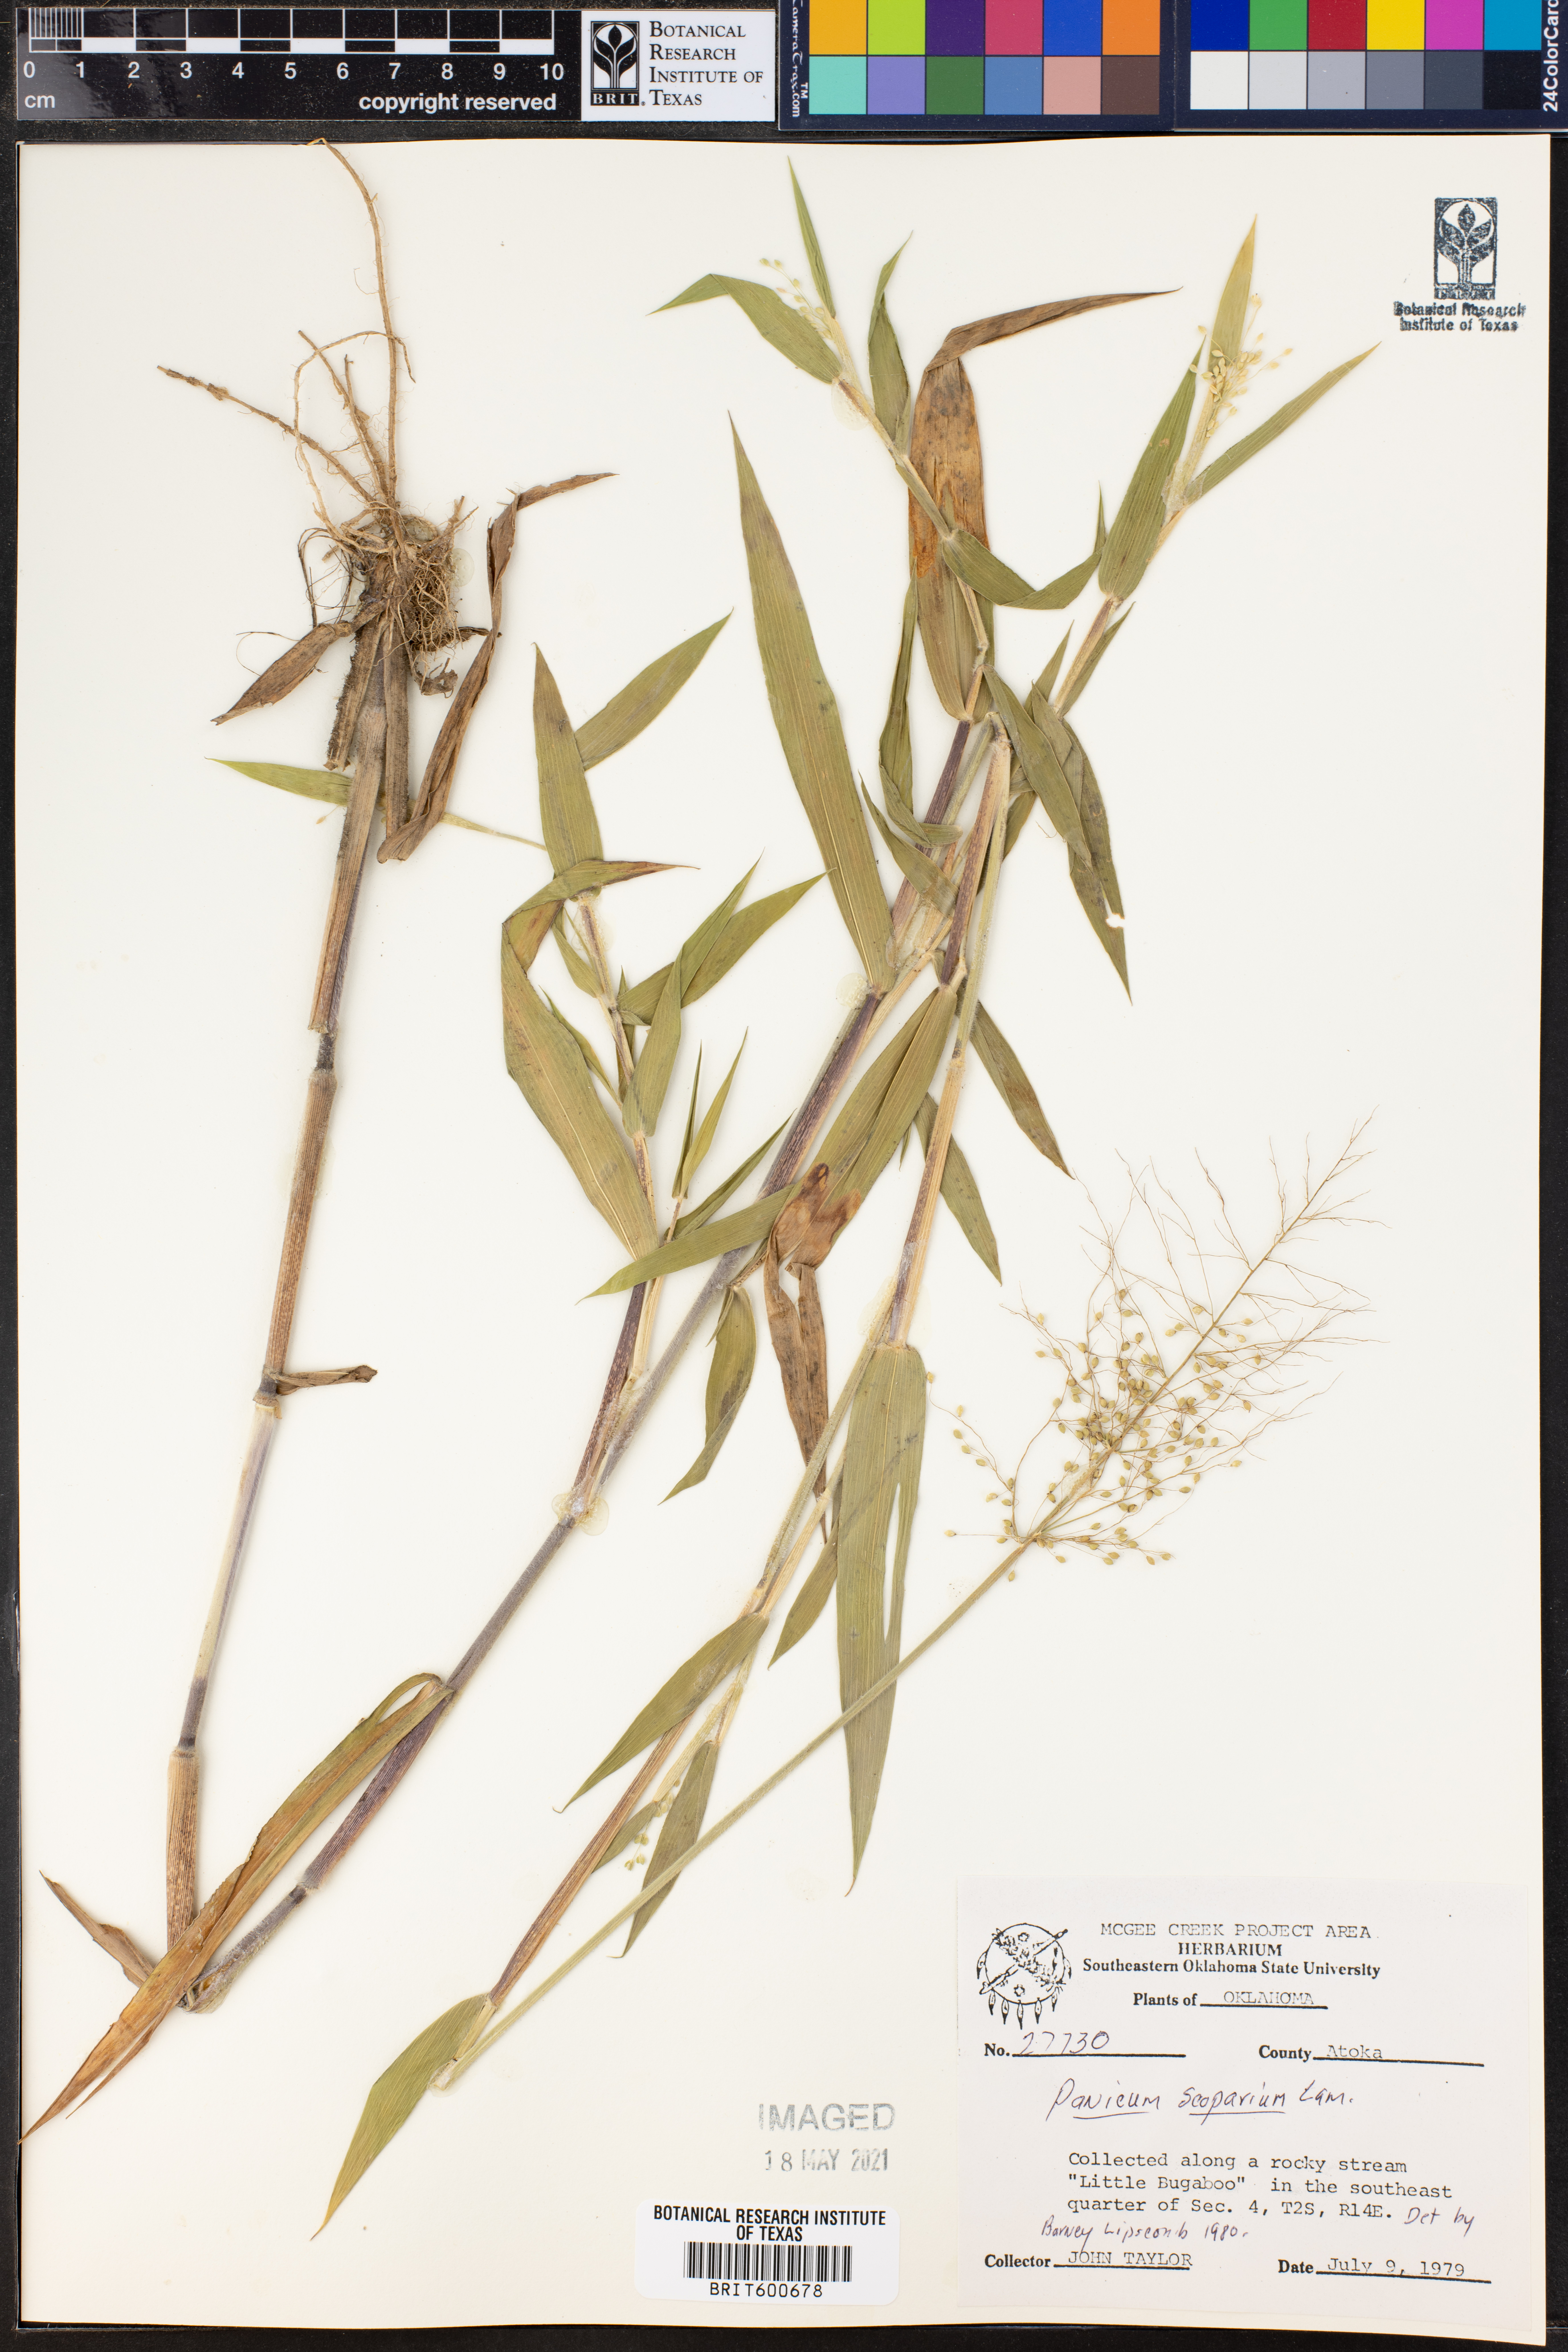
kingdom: Plantae
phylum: Tracheophyta
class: Liliopsida
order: Poales
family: Poaceae
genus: Dichanthelium
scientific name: Dichanthelium scribnerianum
